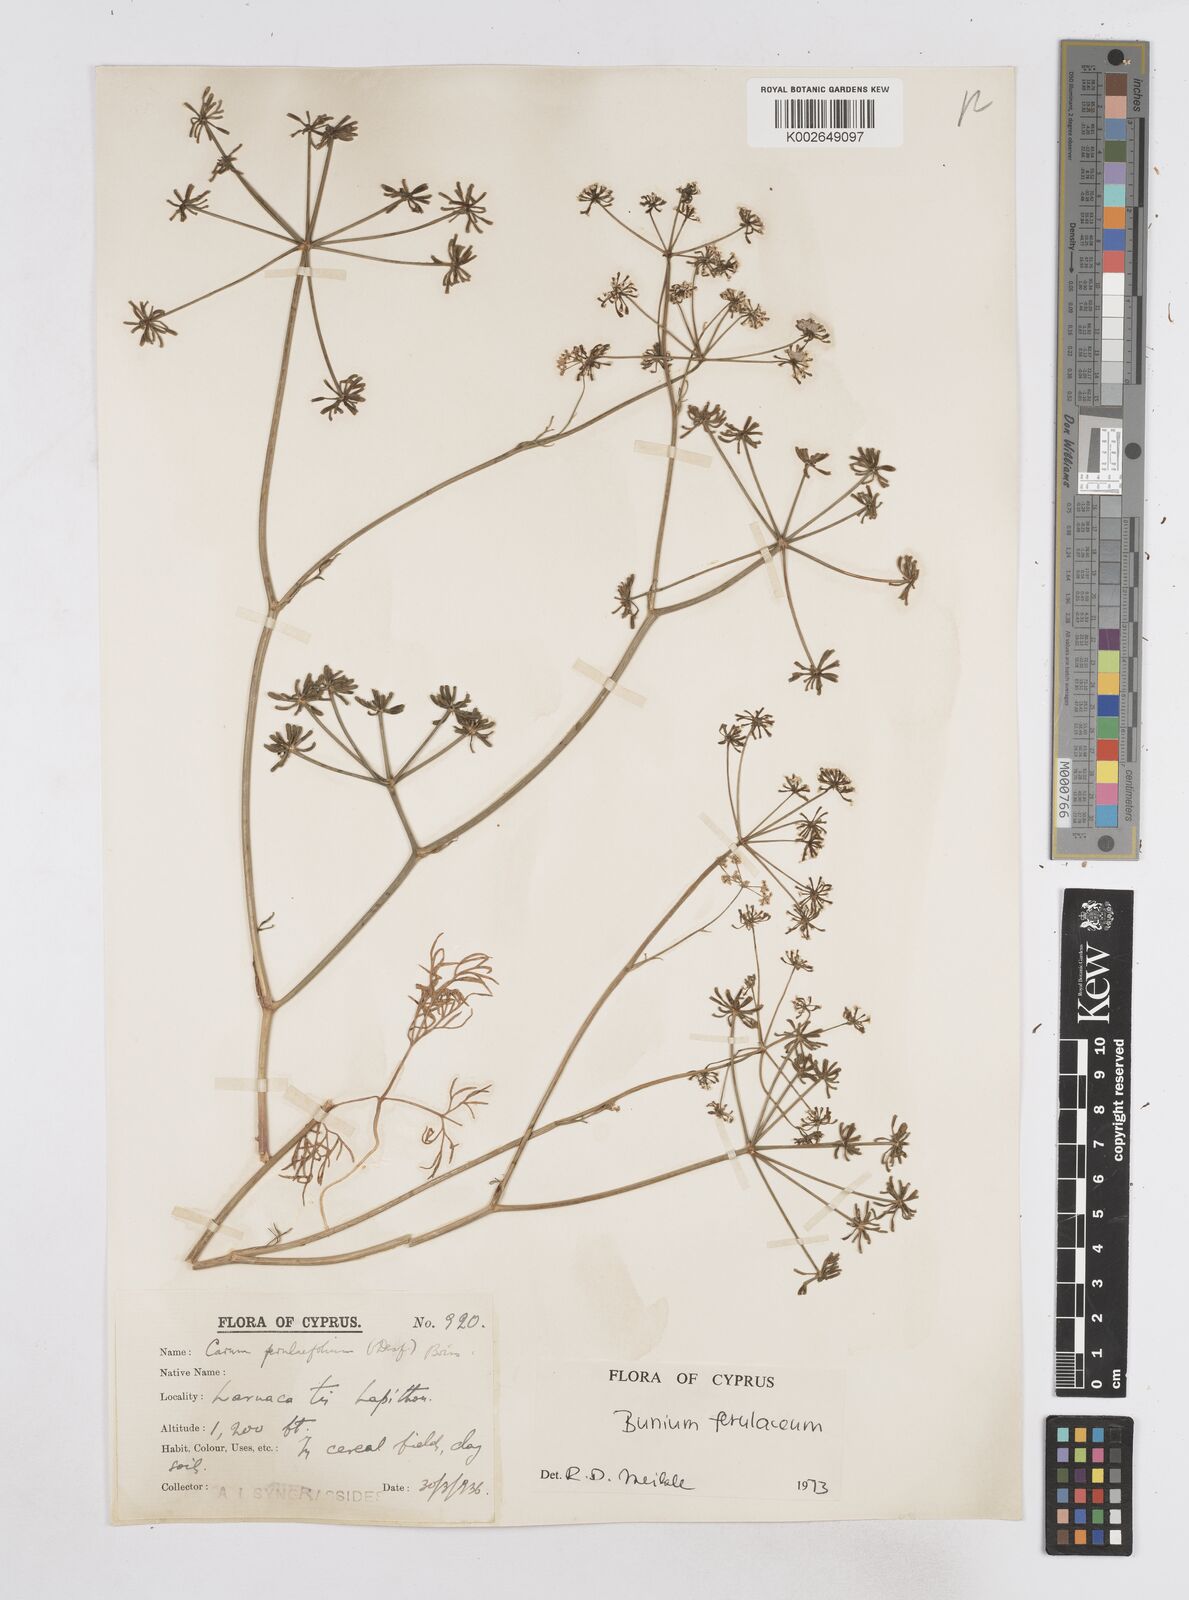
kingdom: Plantae
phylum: Tracheophyta
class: Magnoliopsida
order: Apiales
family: Apiaceae
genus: Bunium
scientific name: Bunium ferulaceum
